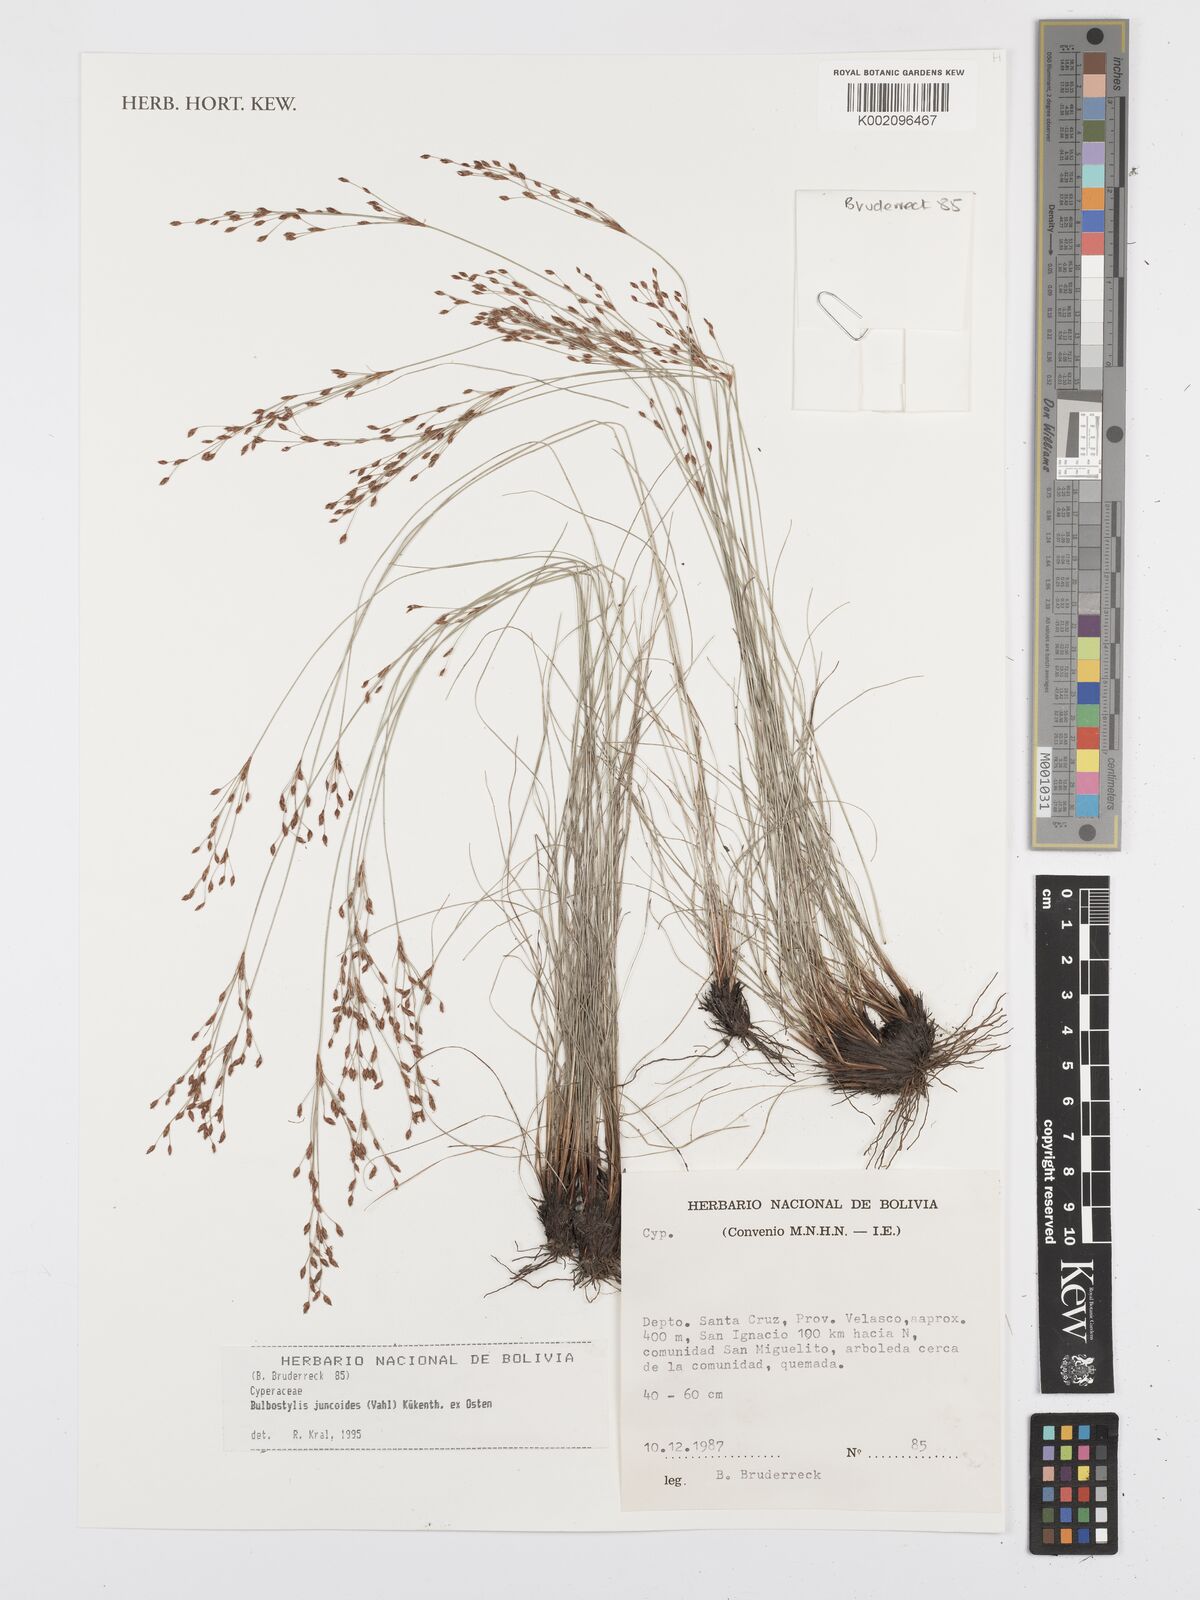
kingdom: Plantae
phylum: Tracheophyta
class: Liliopsida
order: Poales
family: Cyperaceae
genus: Bulbostylis
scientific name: Bulbostylis juncoides
